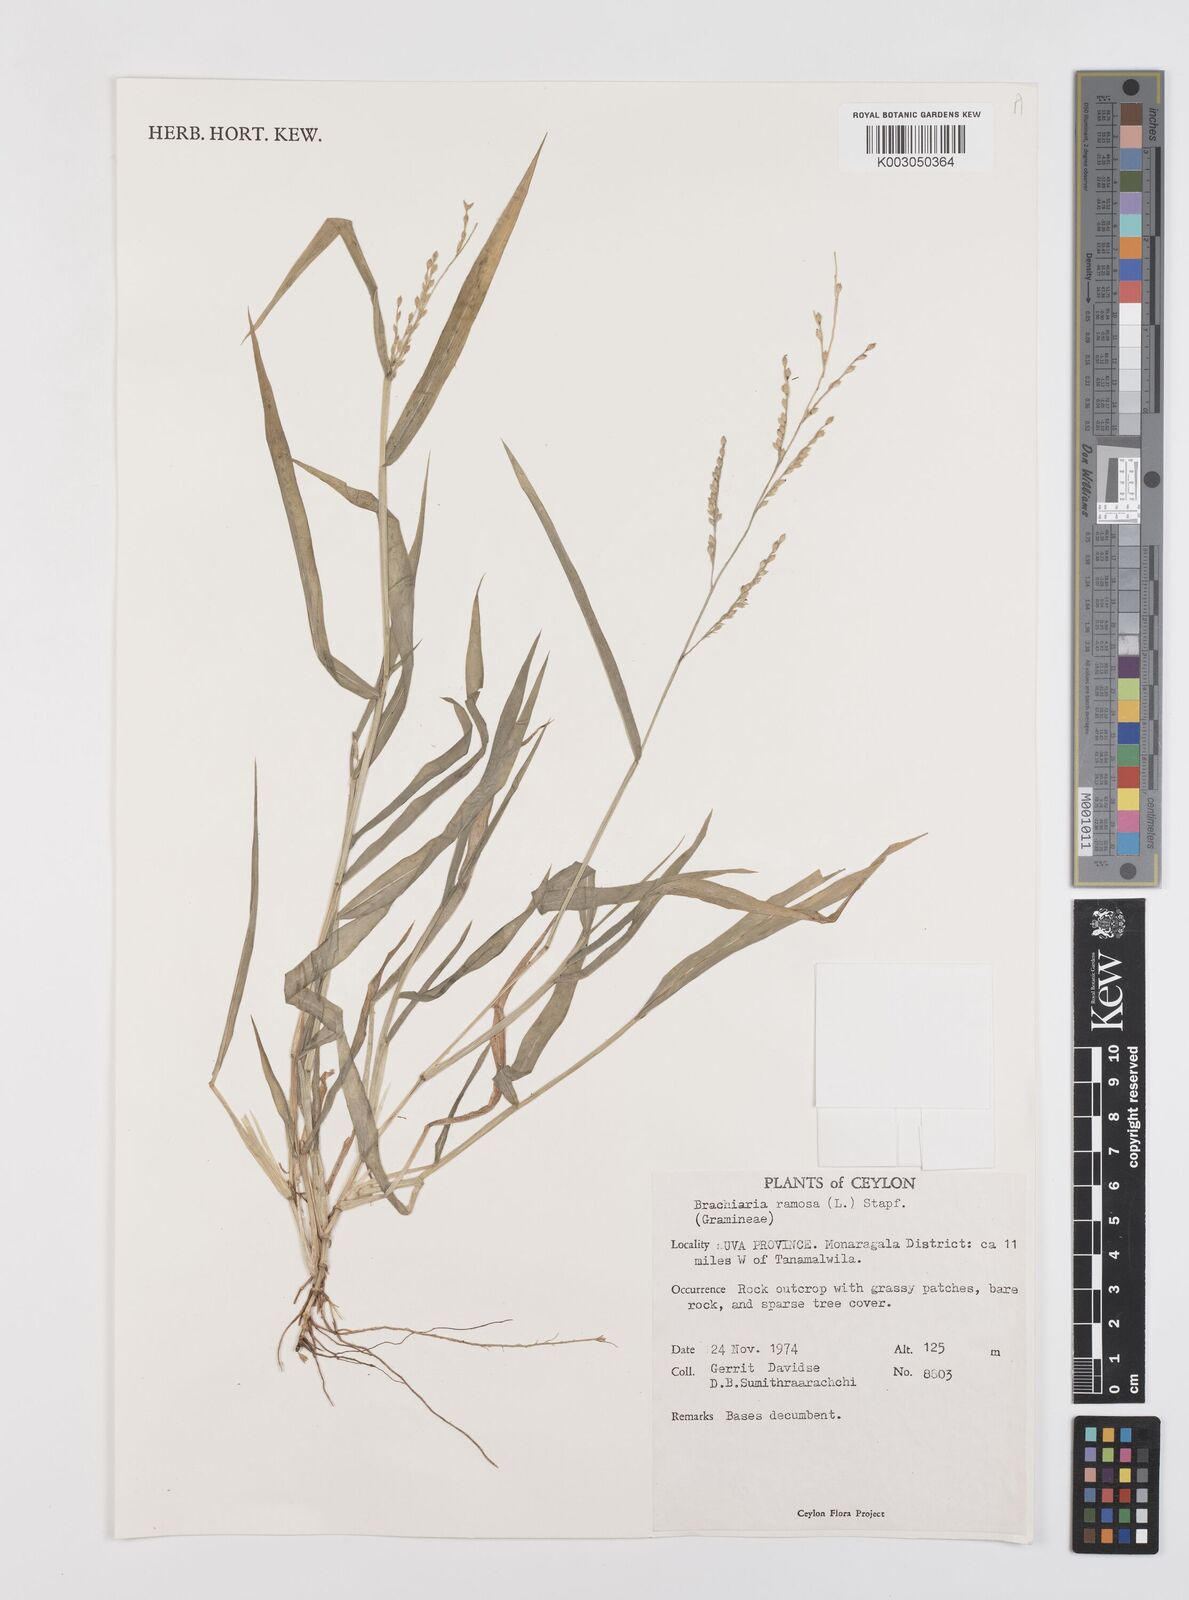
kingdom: Plantae
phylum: Tracheophyta
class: Liliopsida
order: Poales
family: Poaceae
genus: Urochloa
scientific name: Urochloa ramosa
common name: Browntop millet
